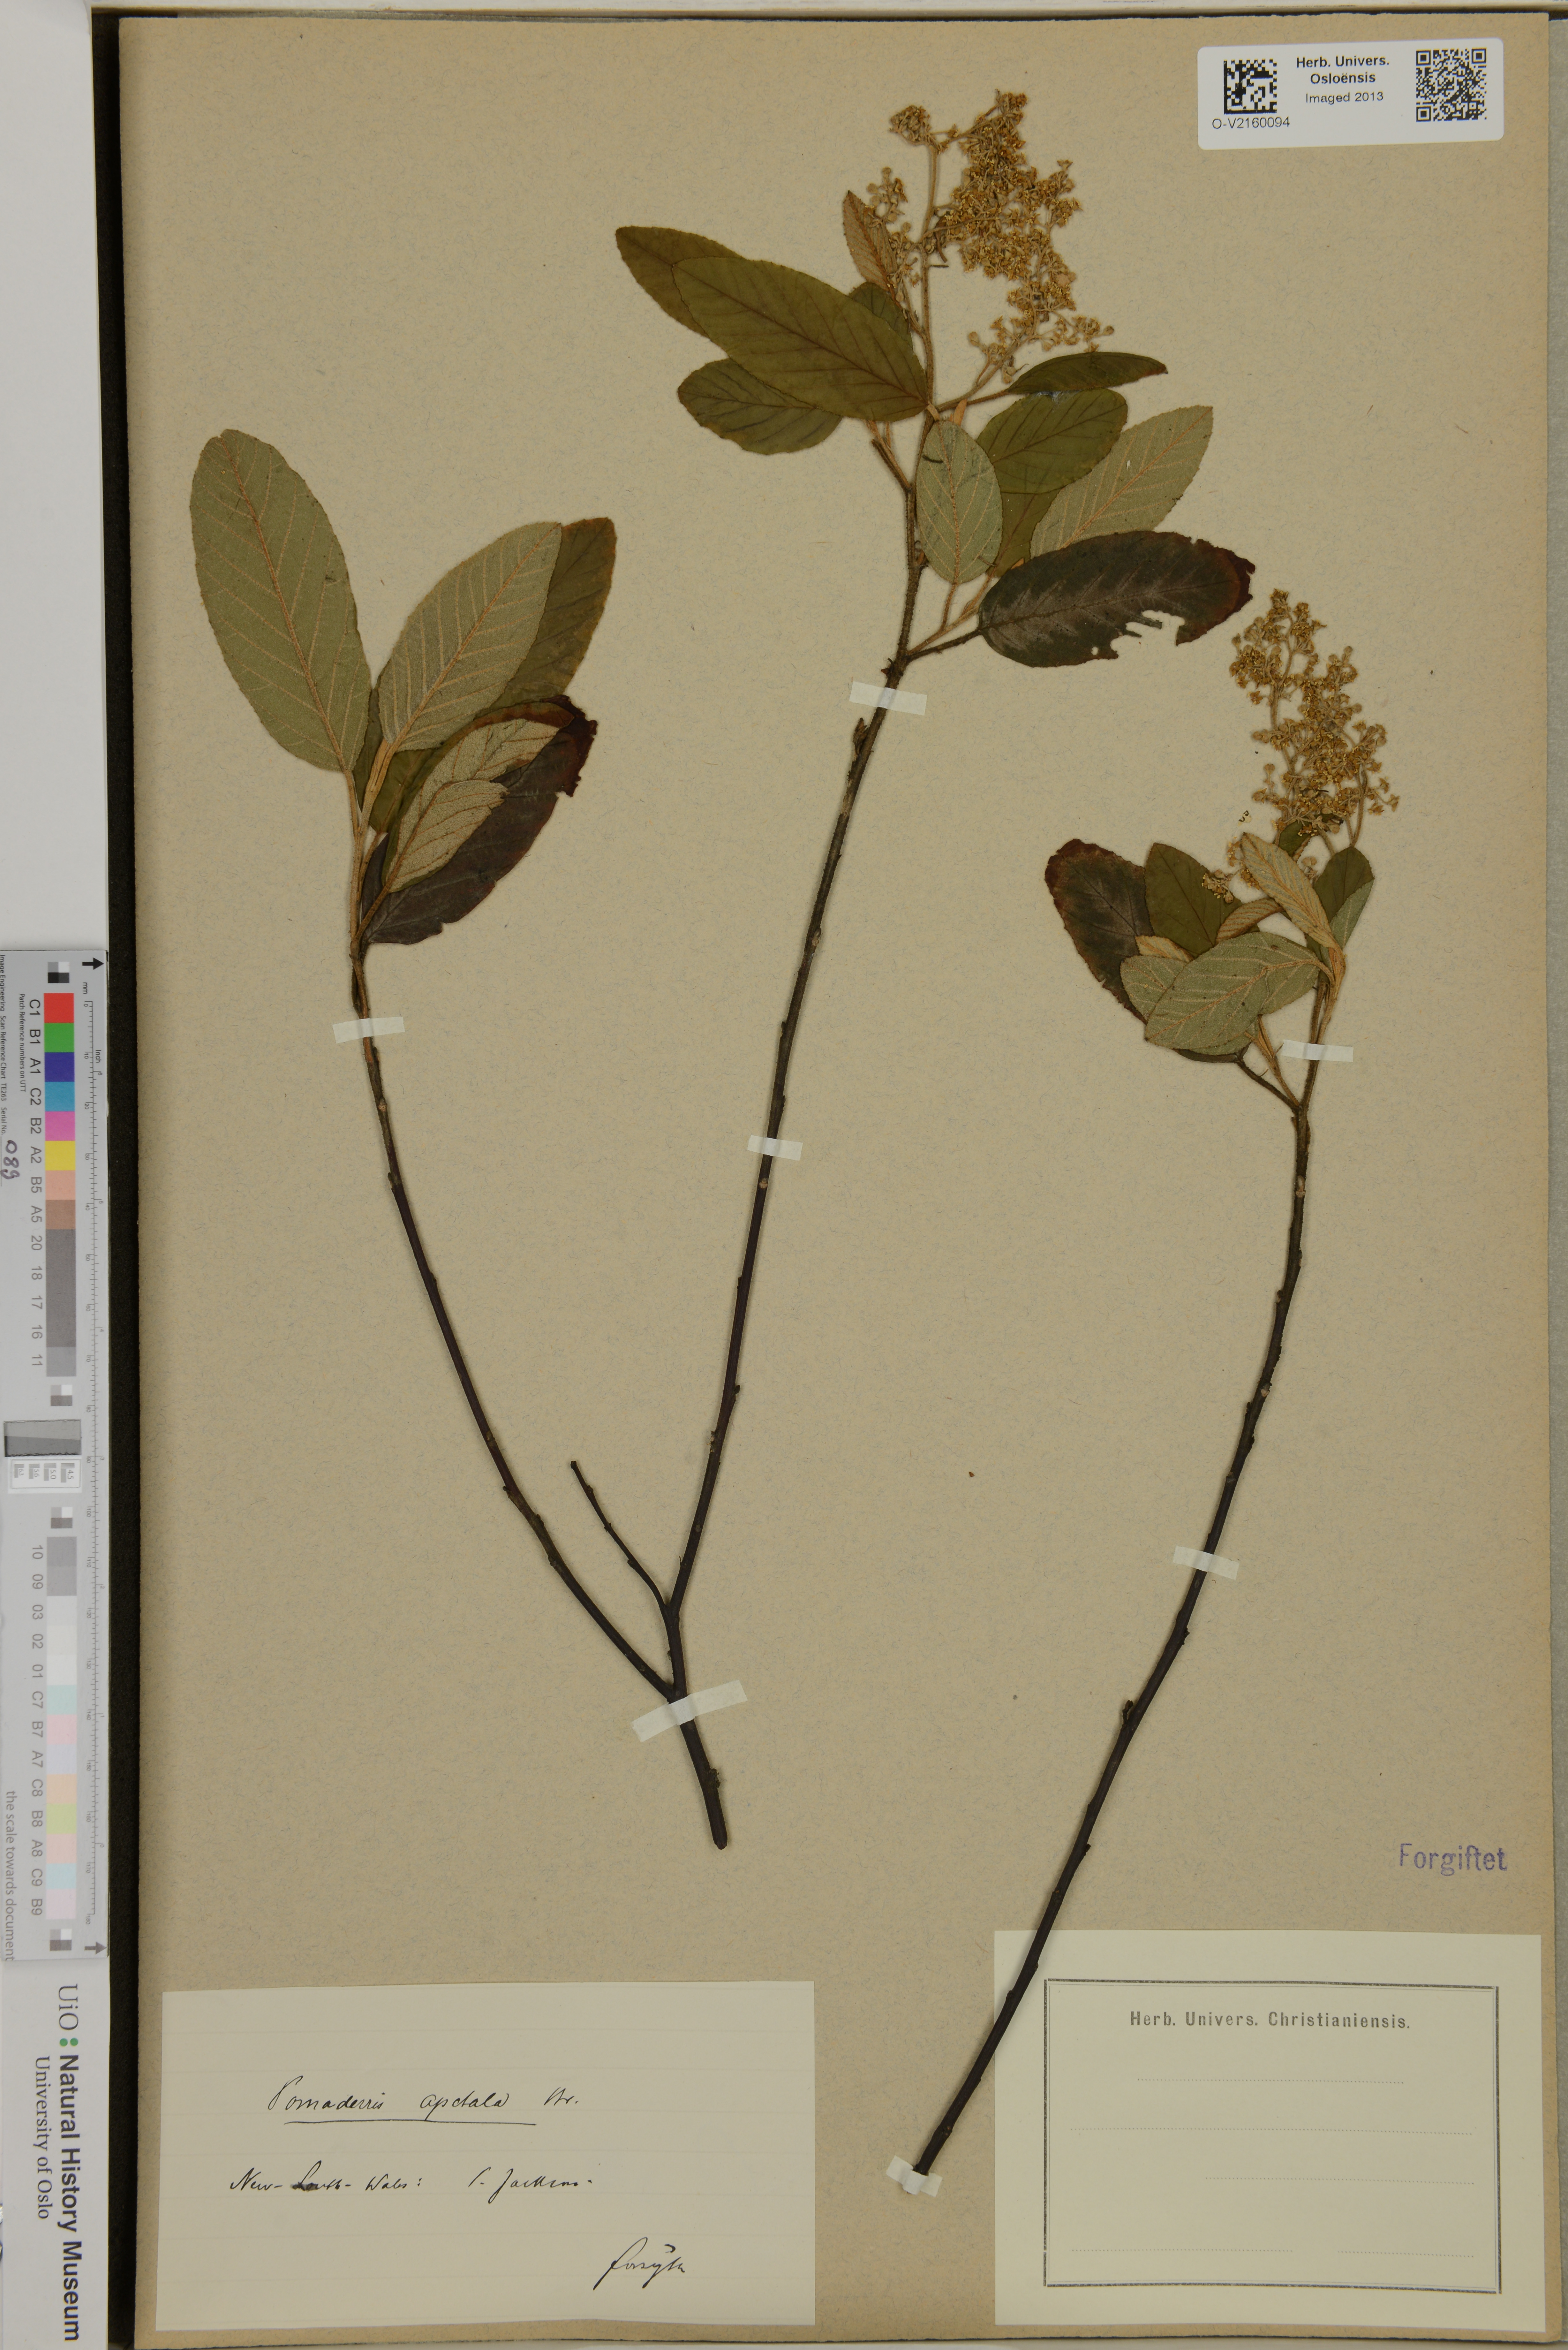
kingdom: Plantae
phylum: Tracheophyta
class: Magnoliopsida
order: Rosales
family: Rhamnaceae
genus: Pomaderris
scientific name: Pomaderris apetala
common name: Hazel pomaderris
